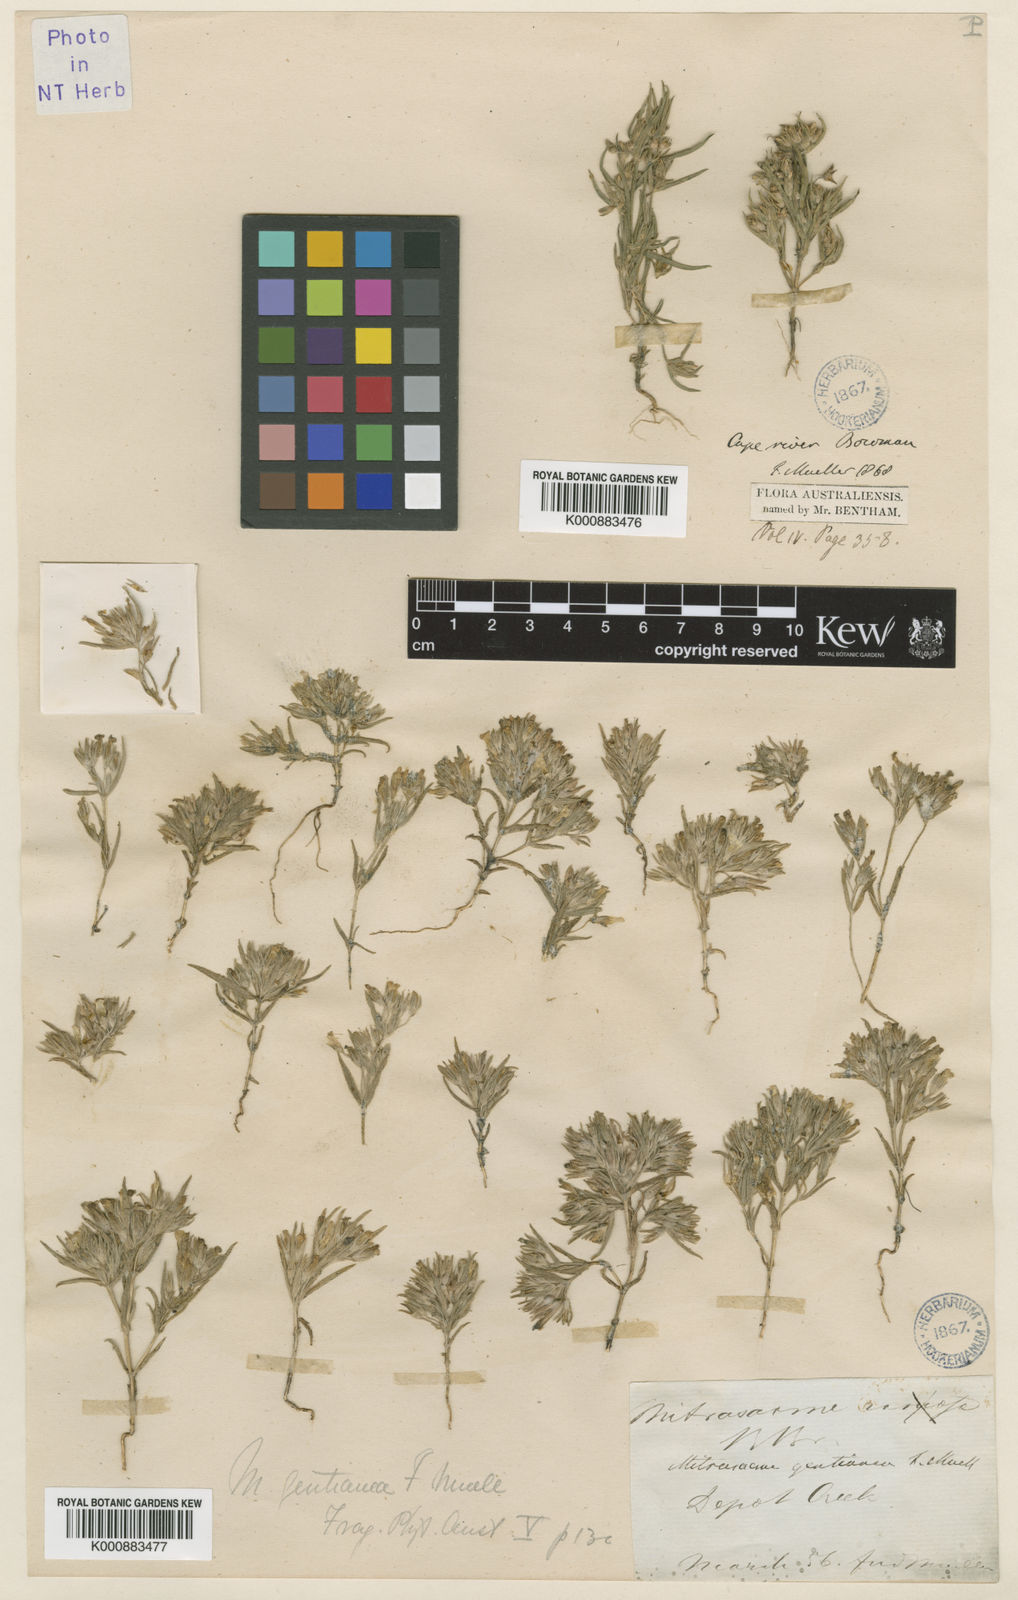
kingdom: Plantae
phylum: Tracheophyta
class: Magnoliopsida
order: Gentianales
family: Loganiaceae
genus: Mitrasacme
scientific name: Mitrasacme gentianea
